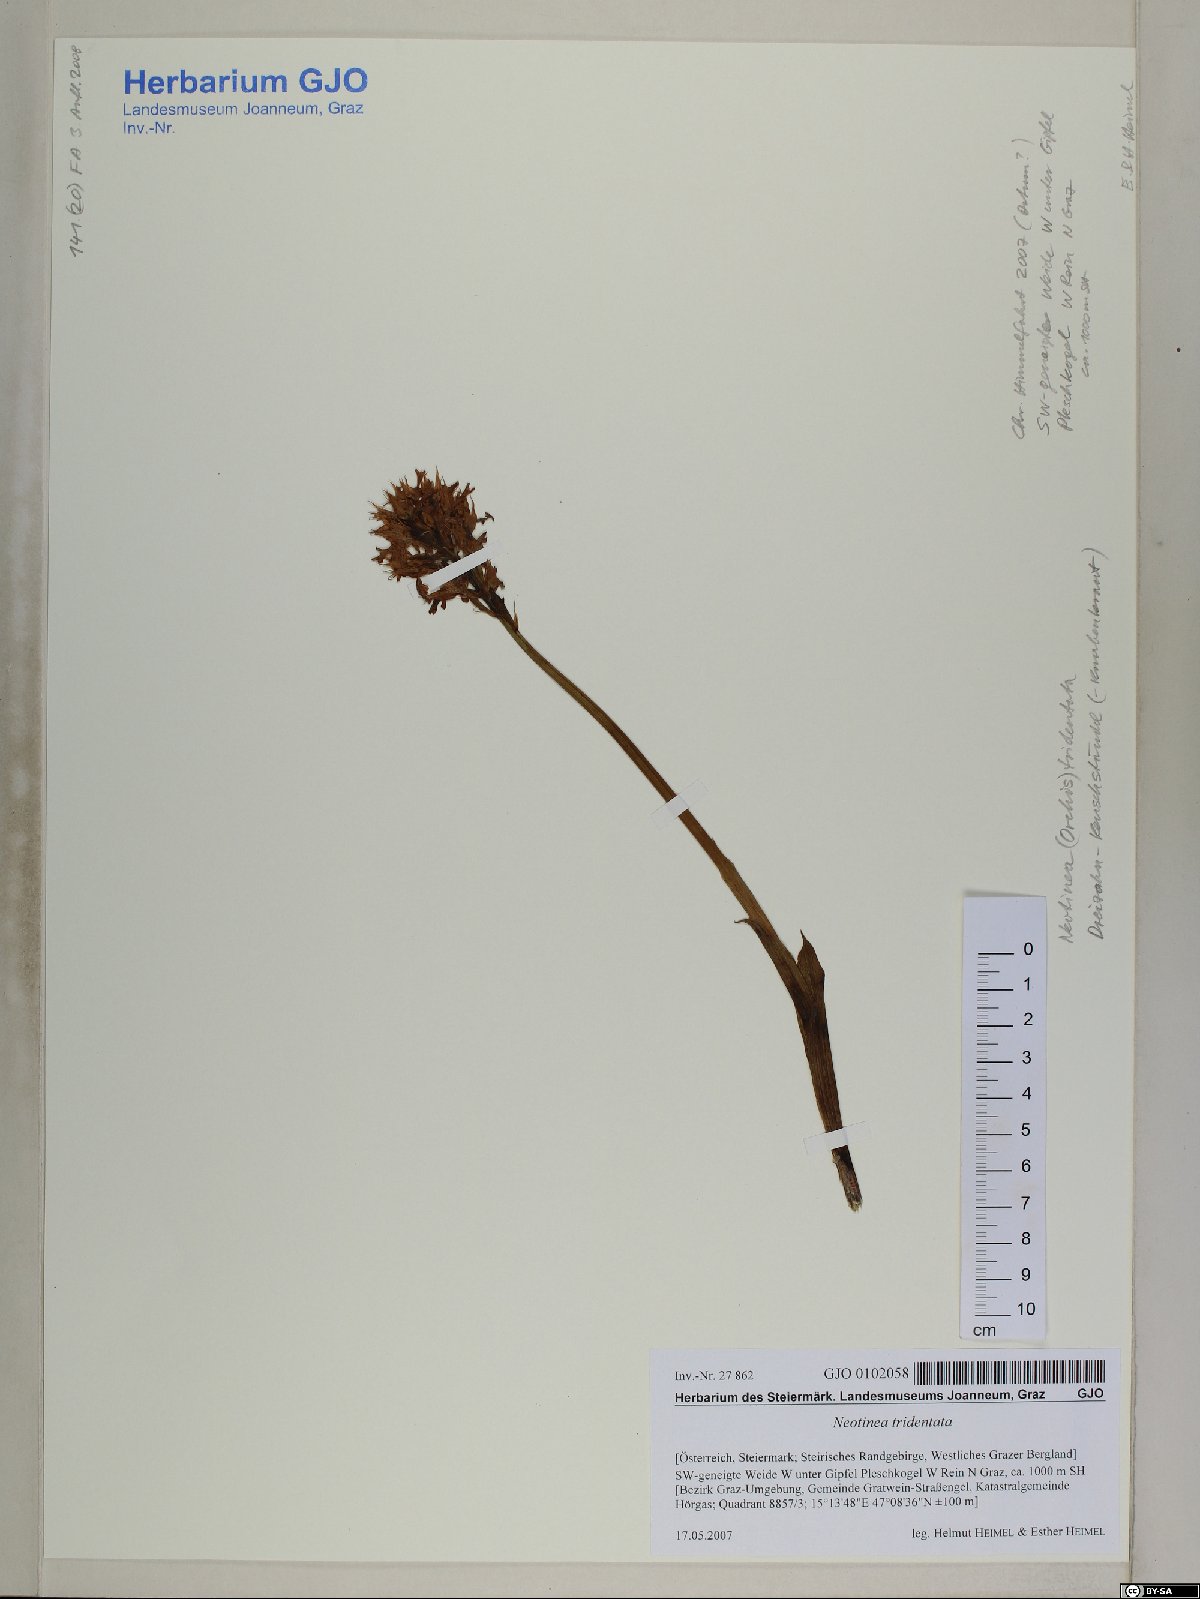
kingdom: Plantae
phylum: Tracheophyta
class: Liliopsida
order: Asparagales
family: Orchidaceae
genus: Neotinea
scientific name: Neotinea tridentata
